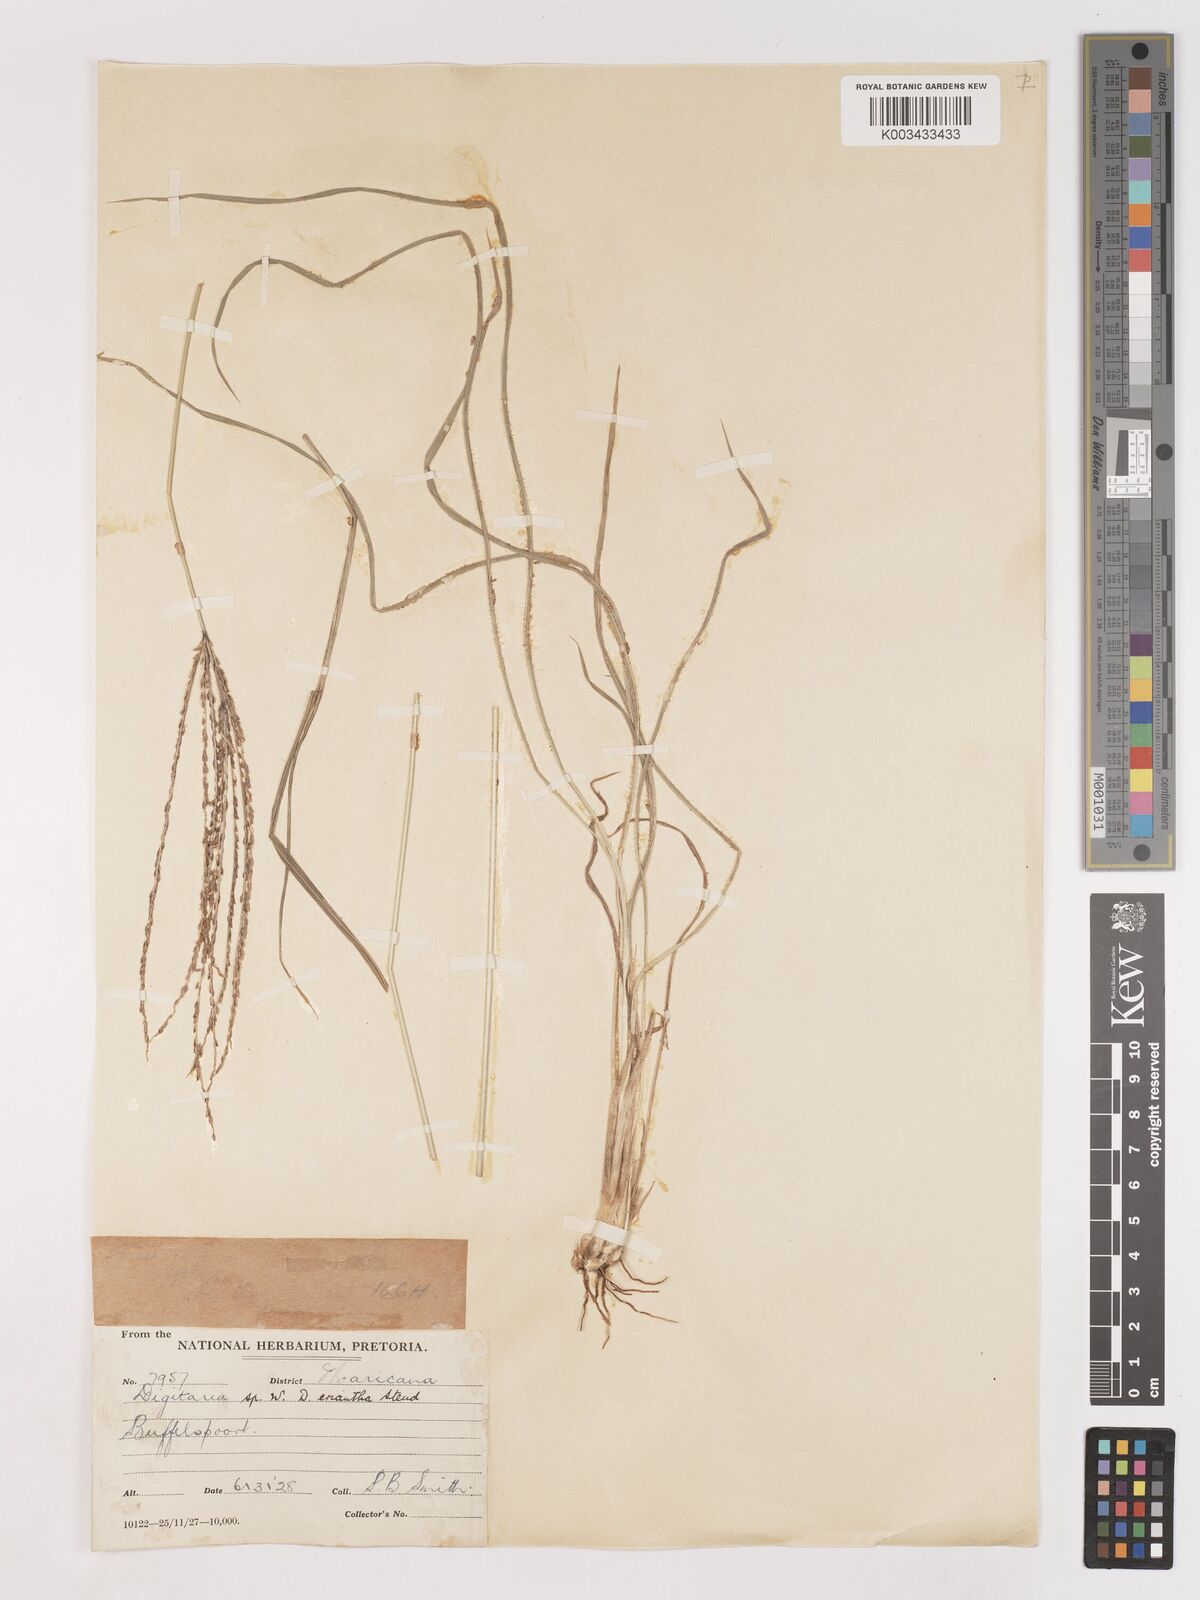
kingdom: Plantae
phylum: Tracheophyta
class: Liliopsida
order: Poales
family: Poaceae
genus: Digitaria
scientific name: Digitaria eriantha
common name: Digitgrass
